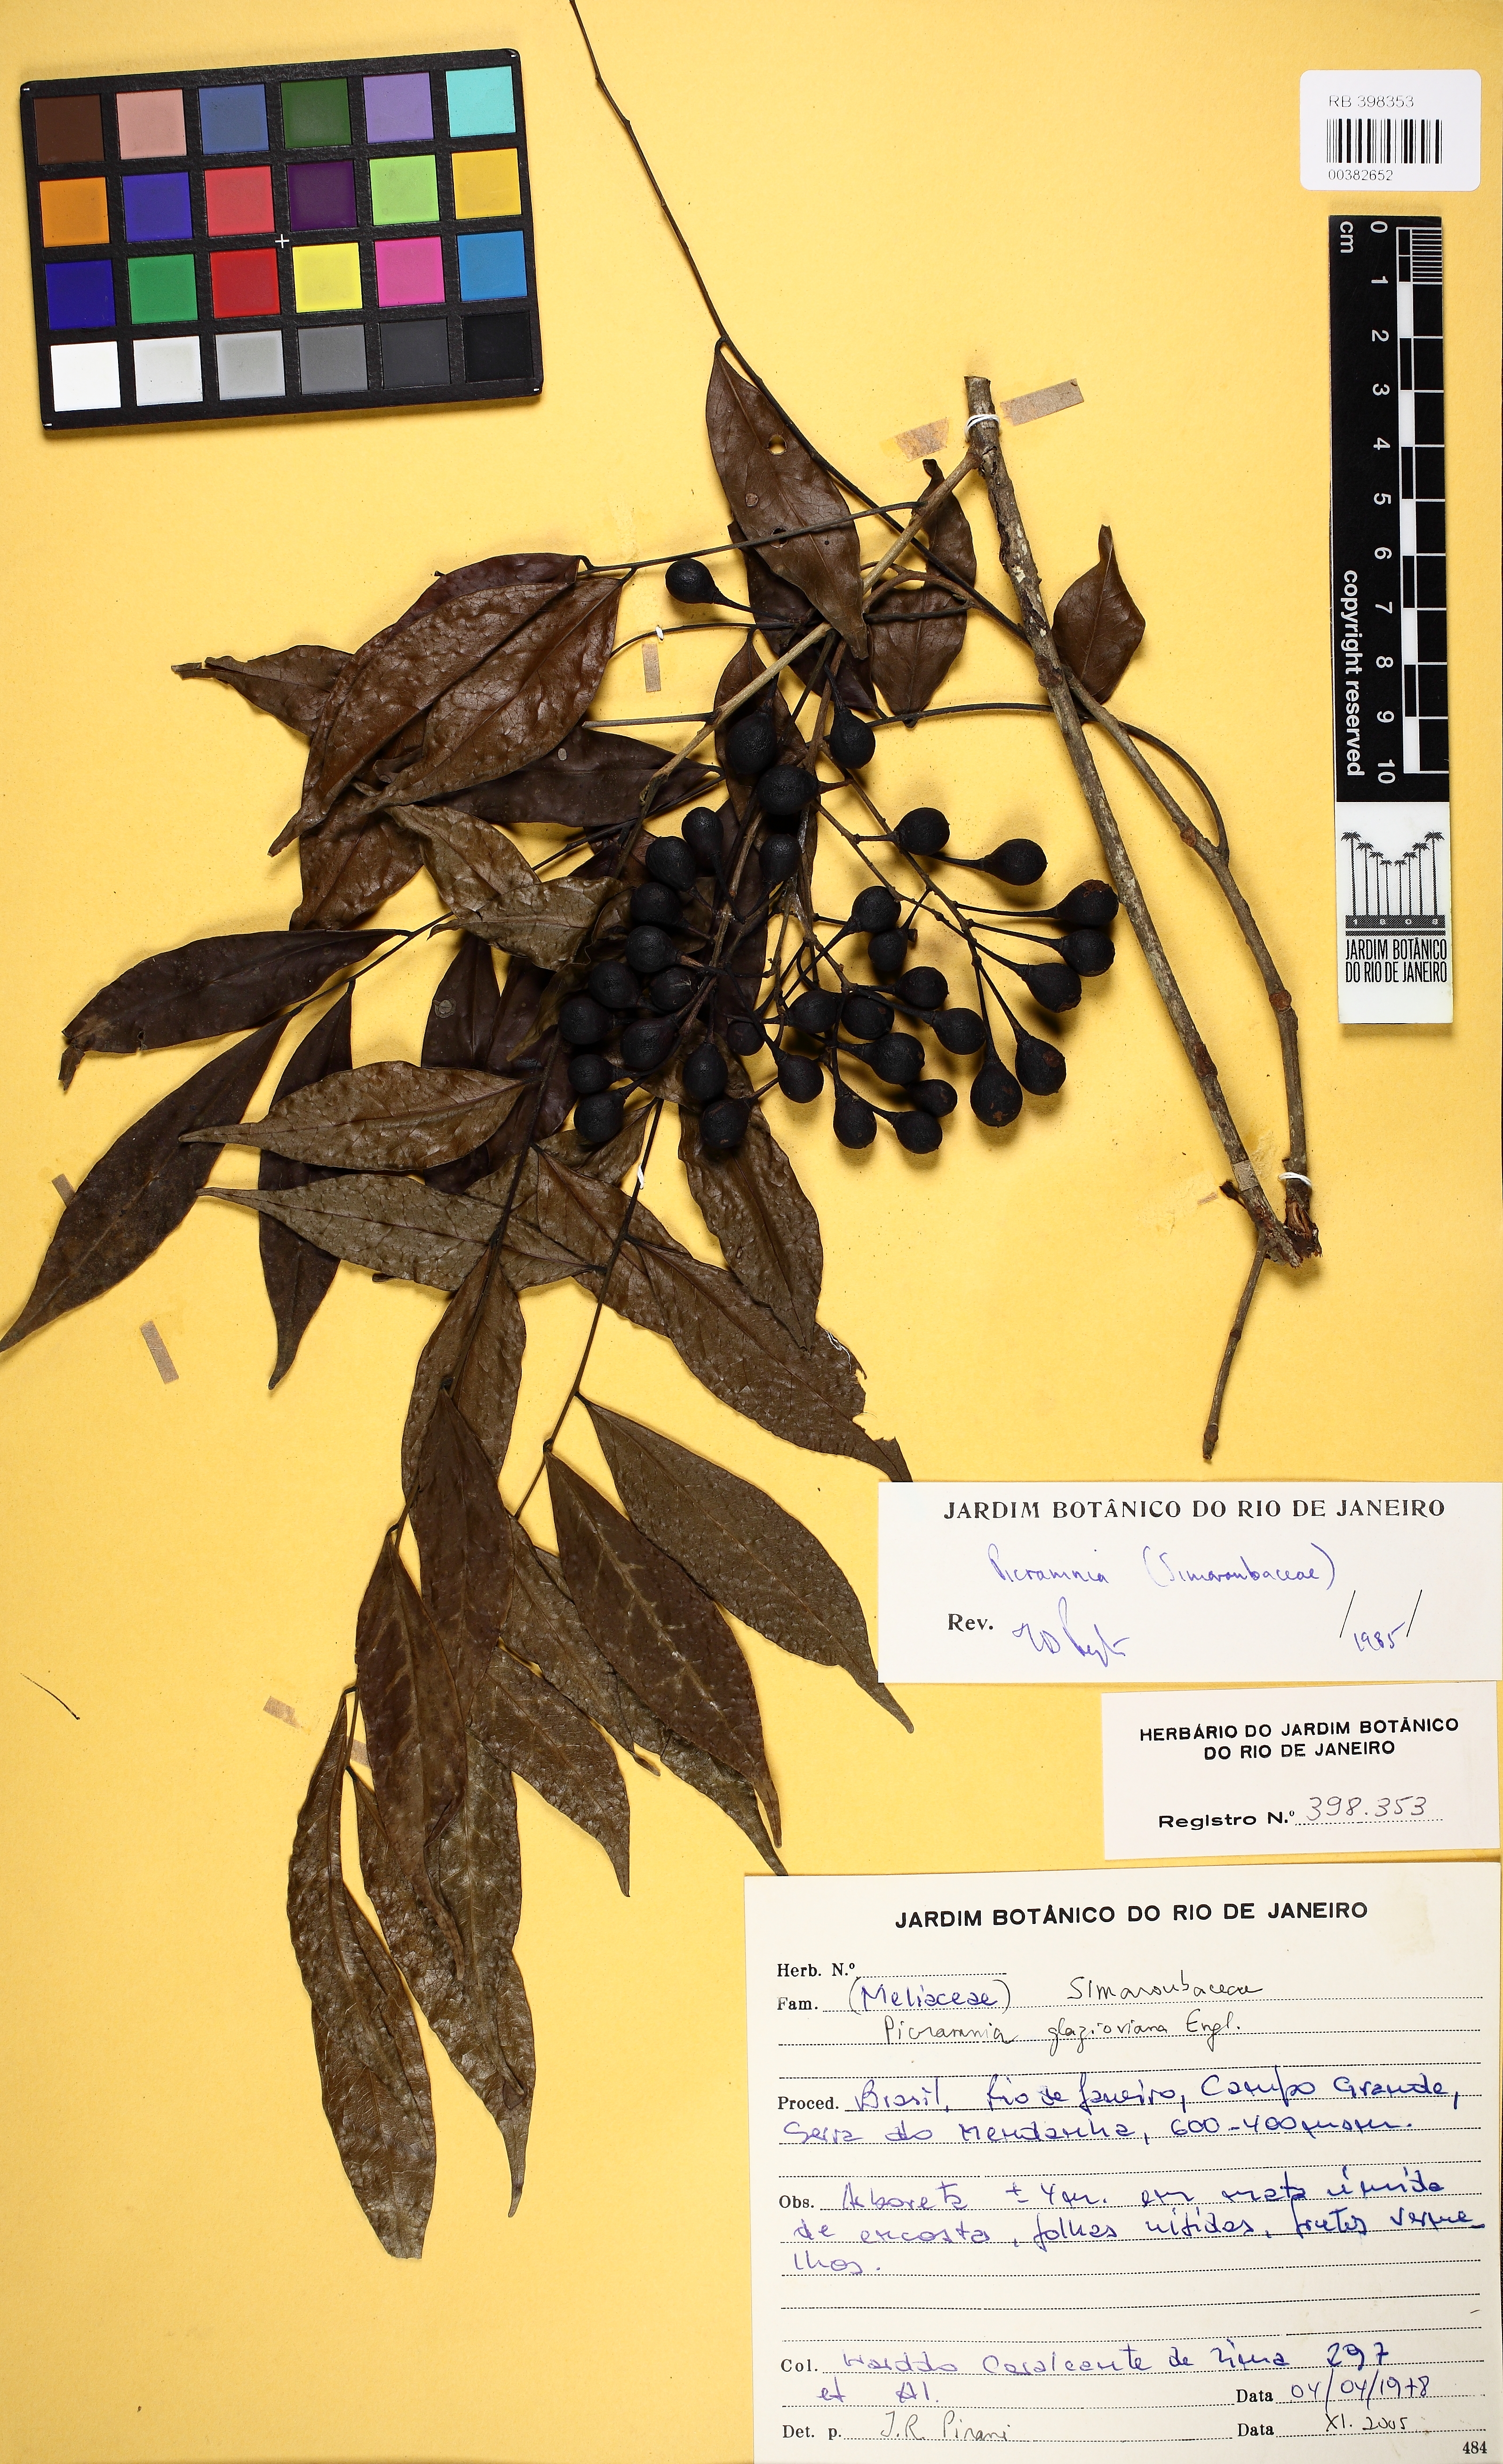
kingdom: Plantae
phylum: Tracheophyta
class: Magnoliopsida
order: Picramniales
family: Picramniaceae
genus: Picramnia
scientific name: Picramnia glazioviana
